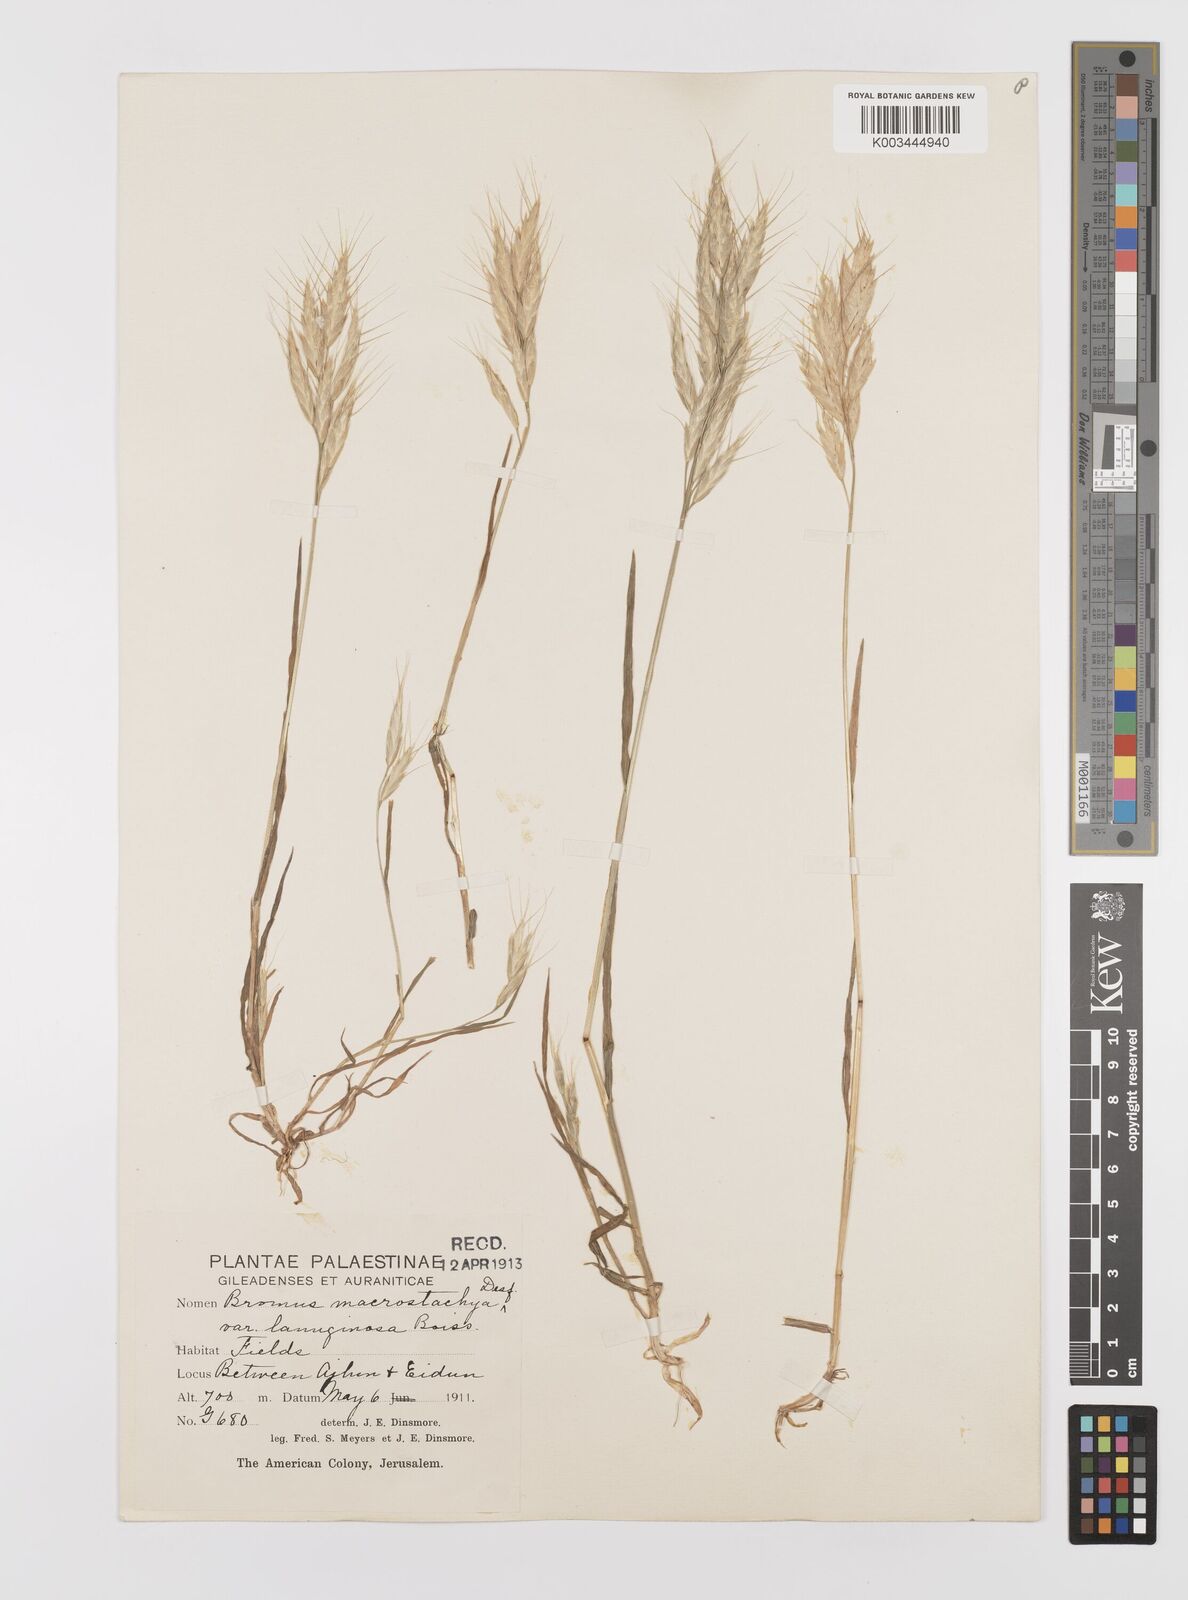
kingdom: Plantae
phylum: Tracheophyta
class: Liliopsida
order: Poales
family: Poaceae
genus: Bromus
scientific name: Bromus lanceolatus
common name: Mediterranean brome
